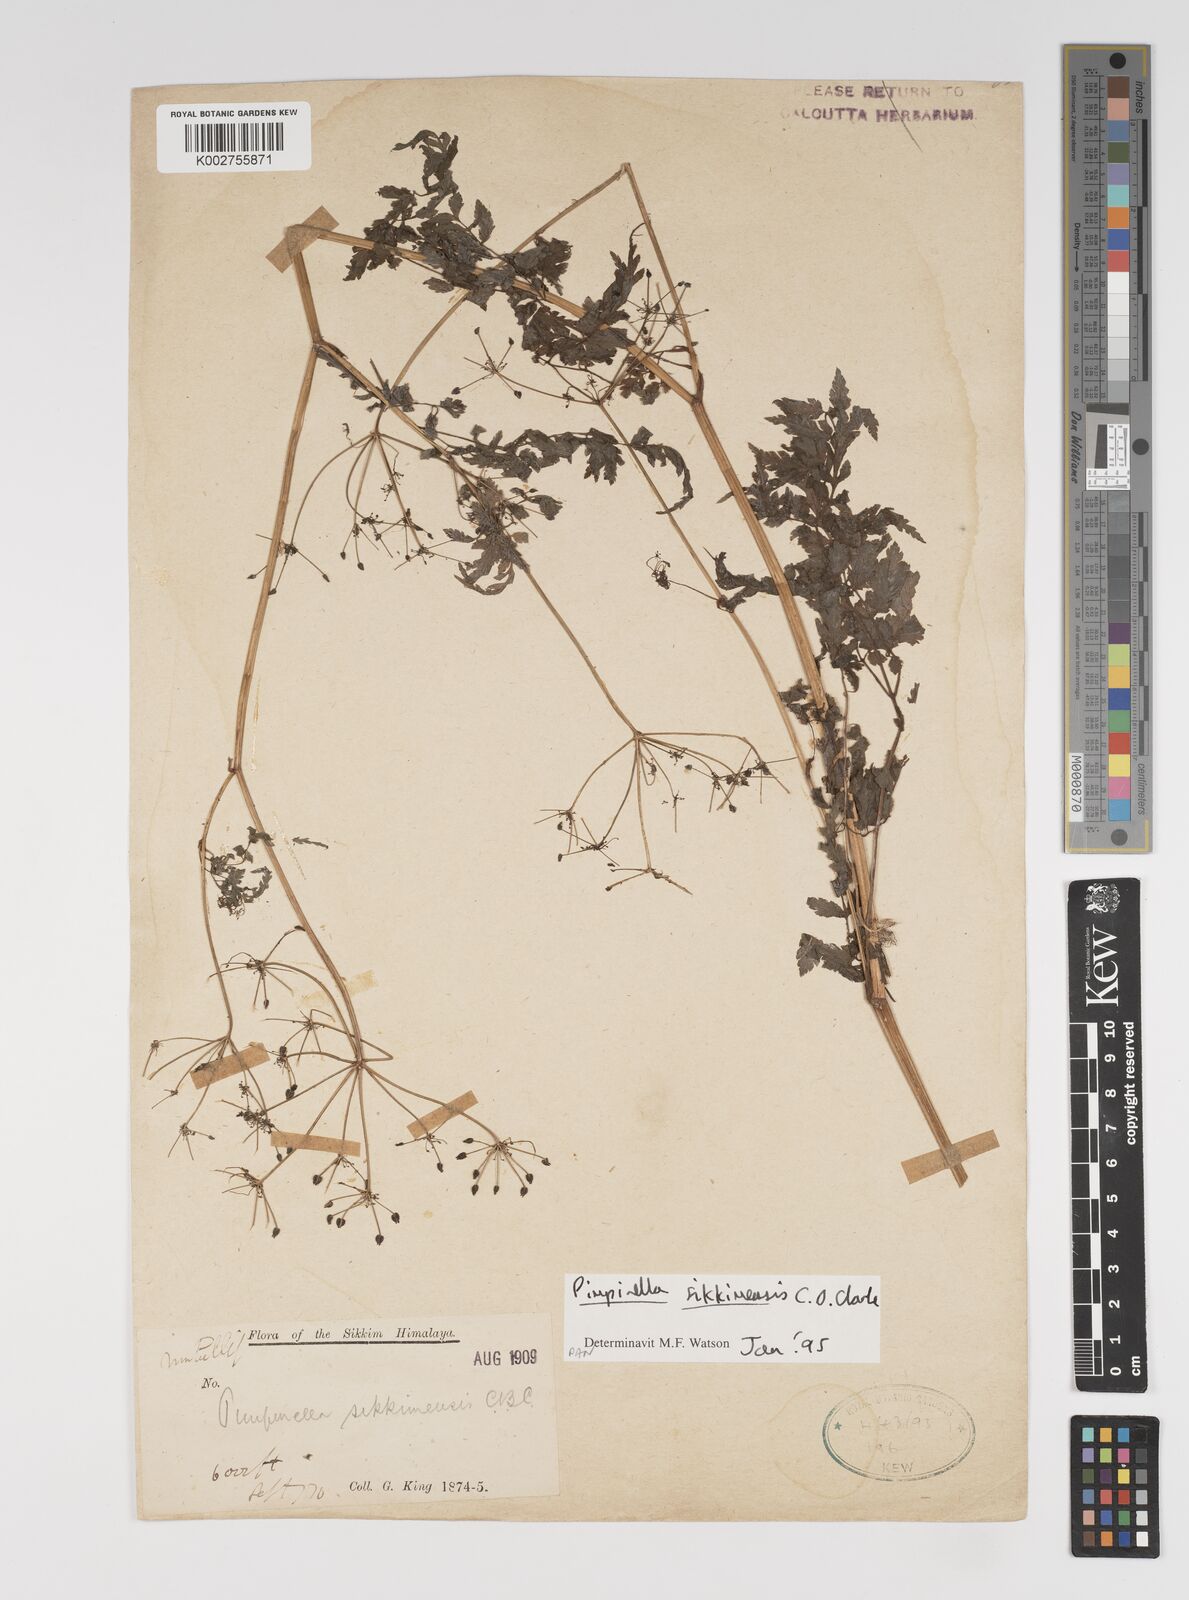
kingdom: Plantae
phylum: Tracheophyta
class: Magnoliopsida
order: Apiales
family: Apiaceae
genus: Pimpinella
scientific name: Pimpinella sikkimensis
